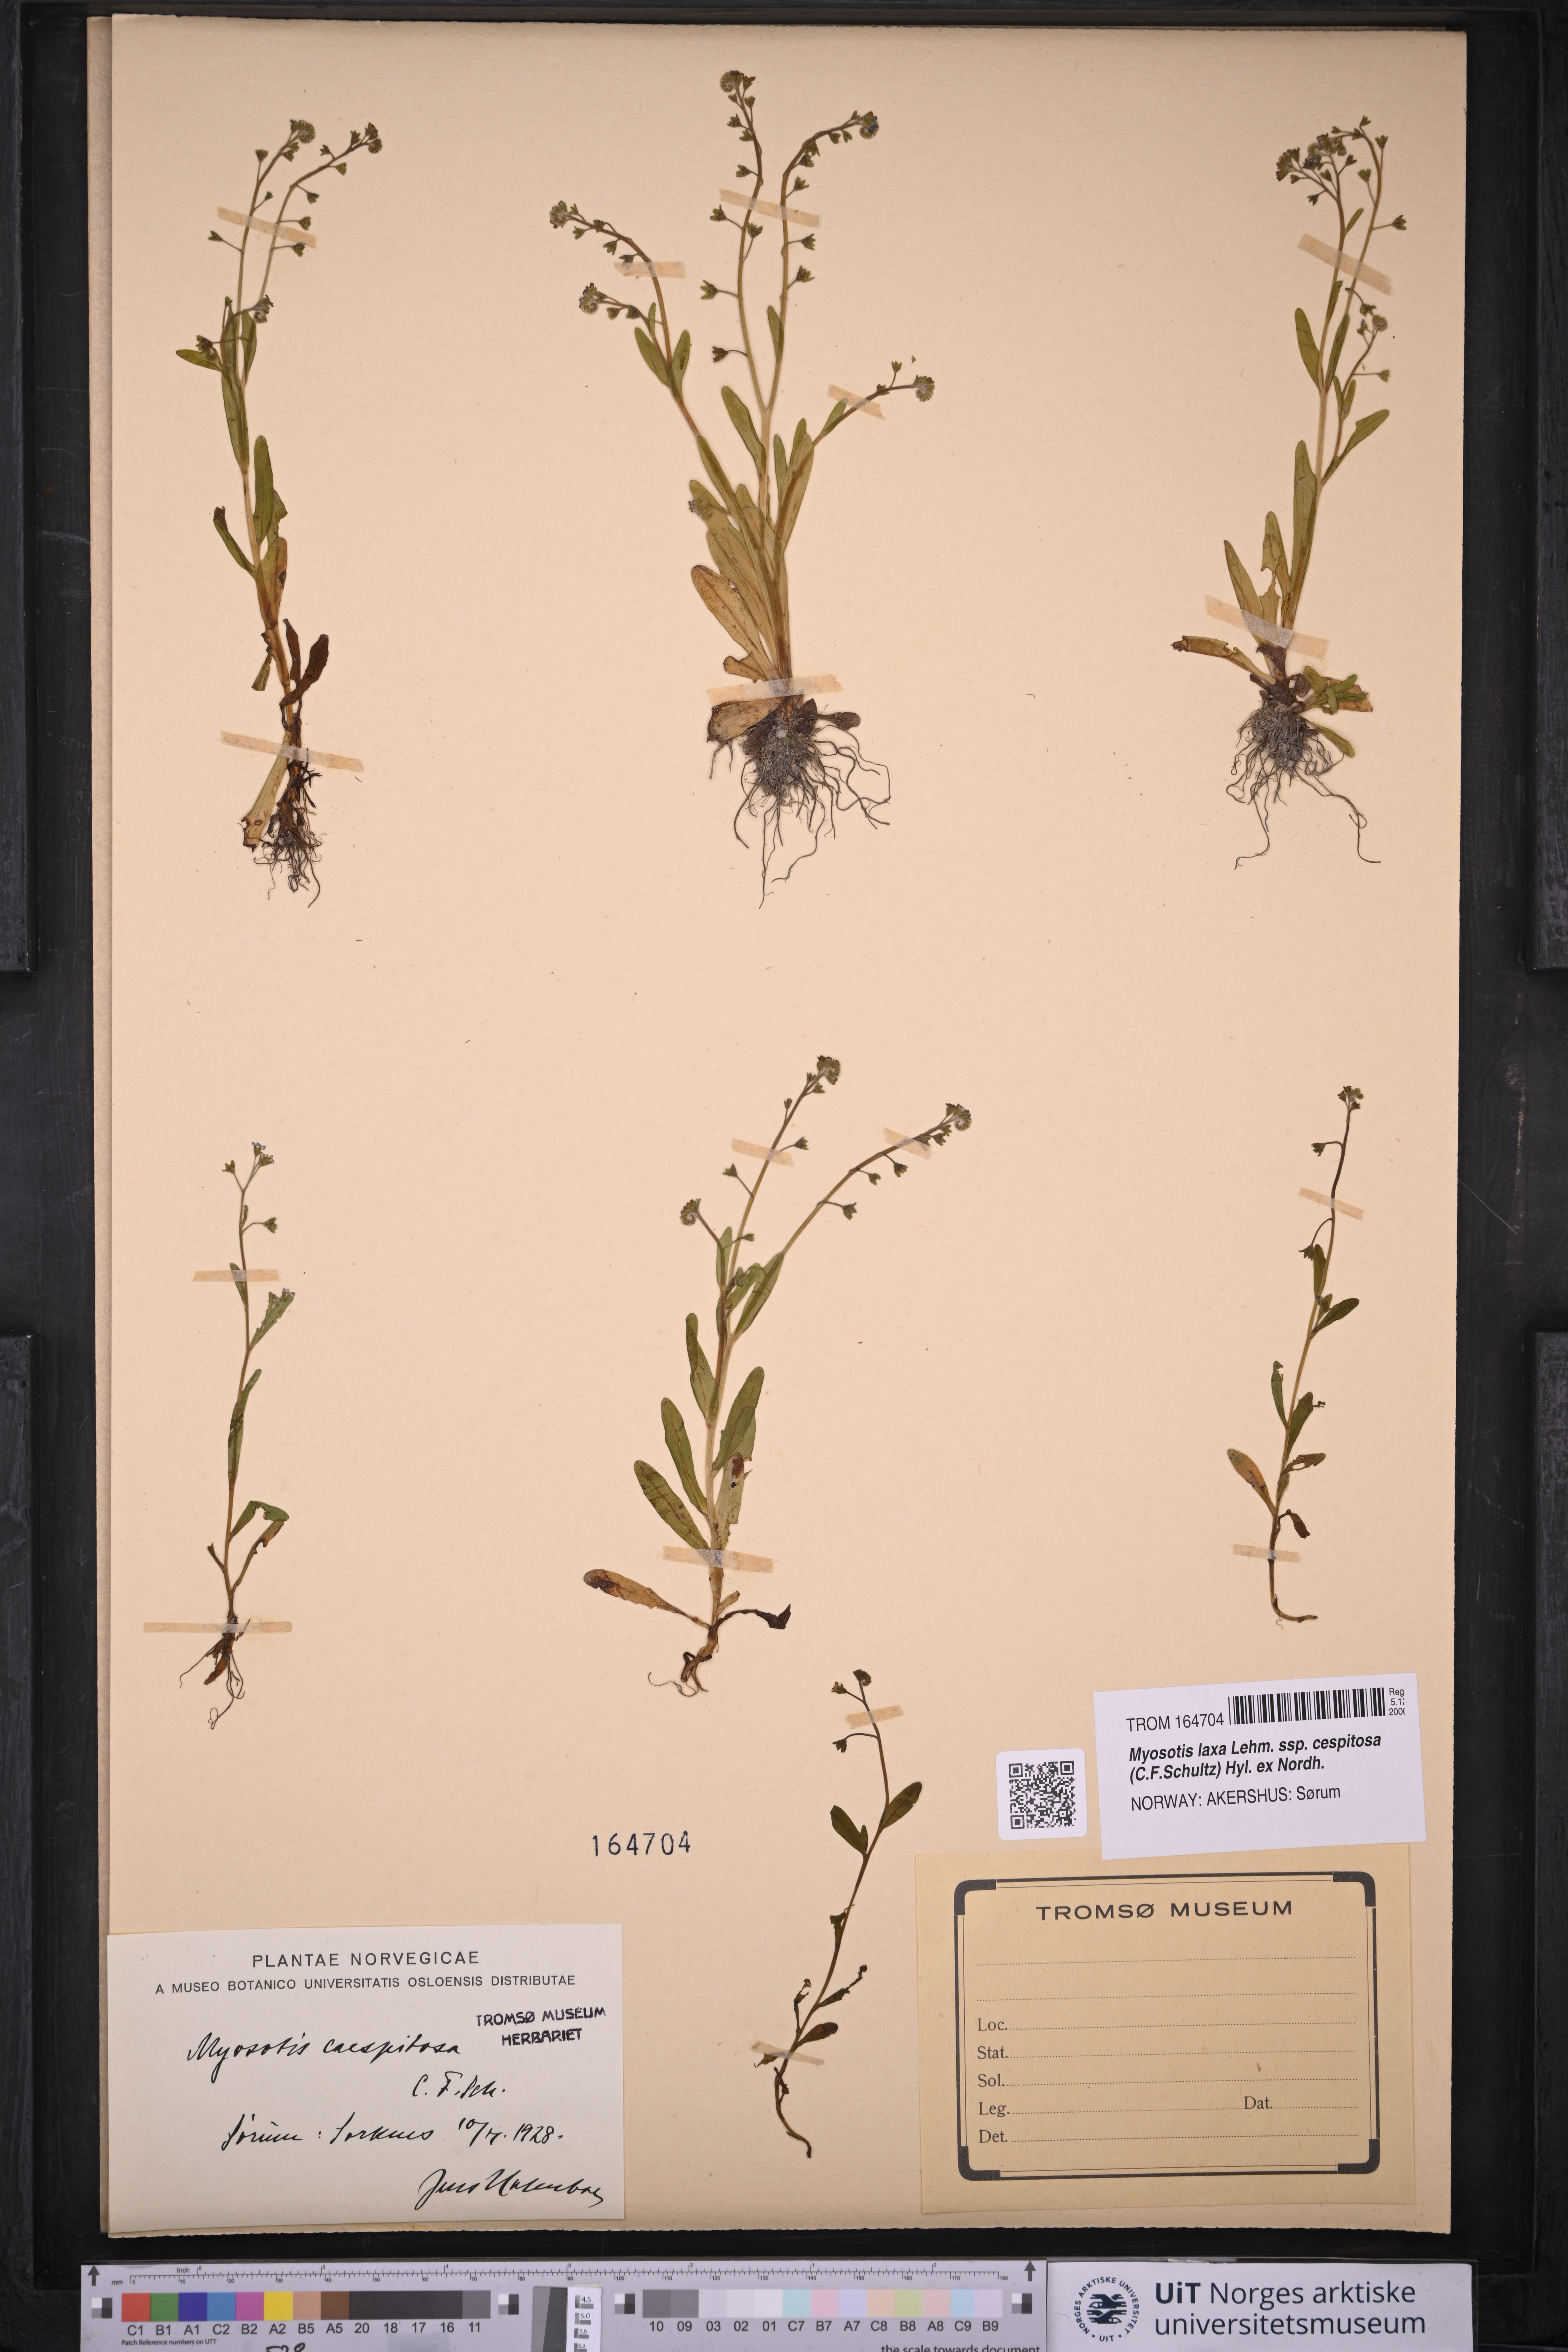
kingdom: Plantae
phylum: Tracheophyta
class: Magnoliopsida
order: Boraginales
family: Boraginaceae
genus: Myosotis
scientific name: Myosotis laxa
